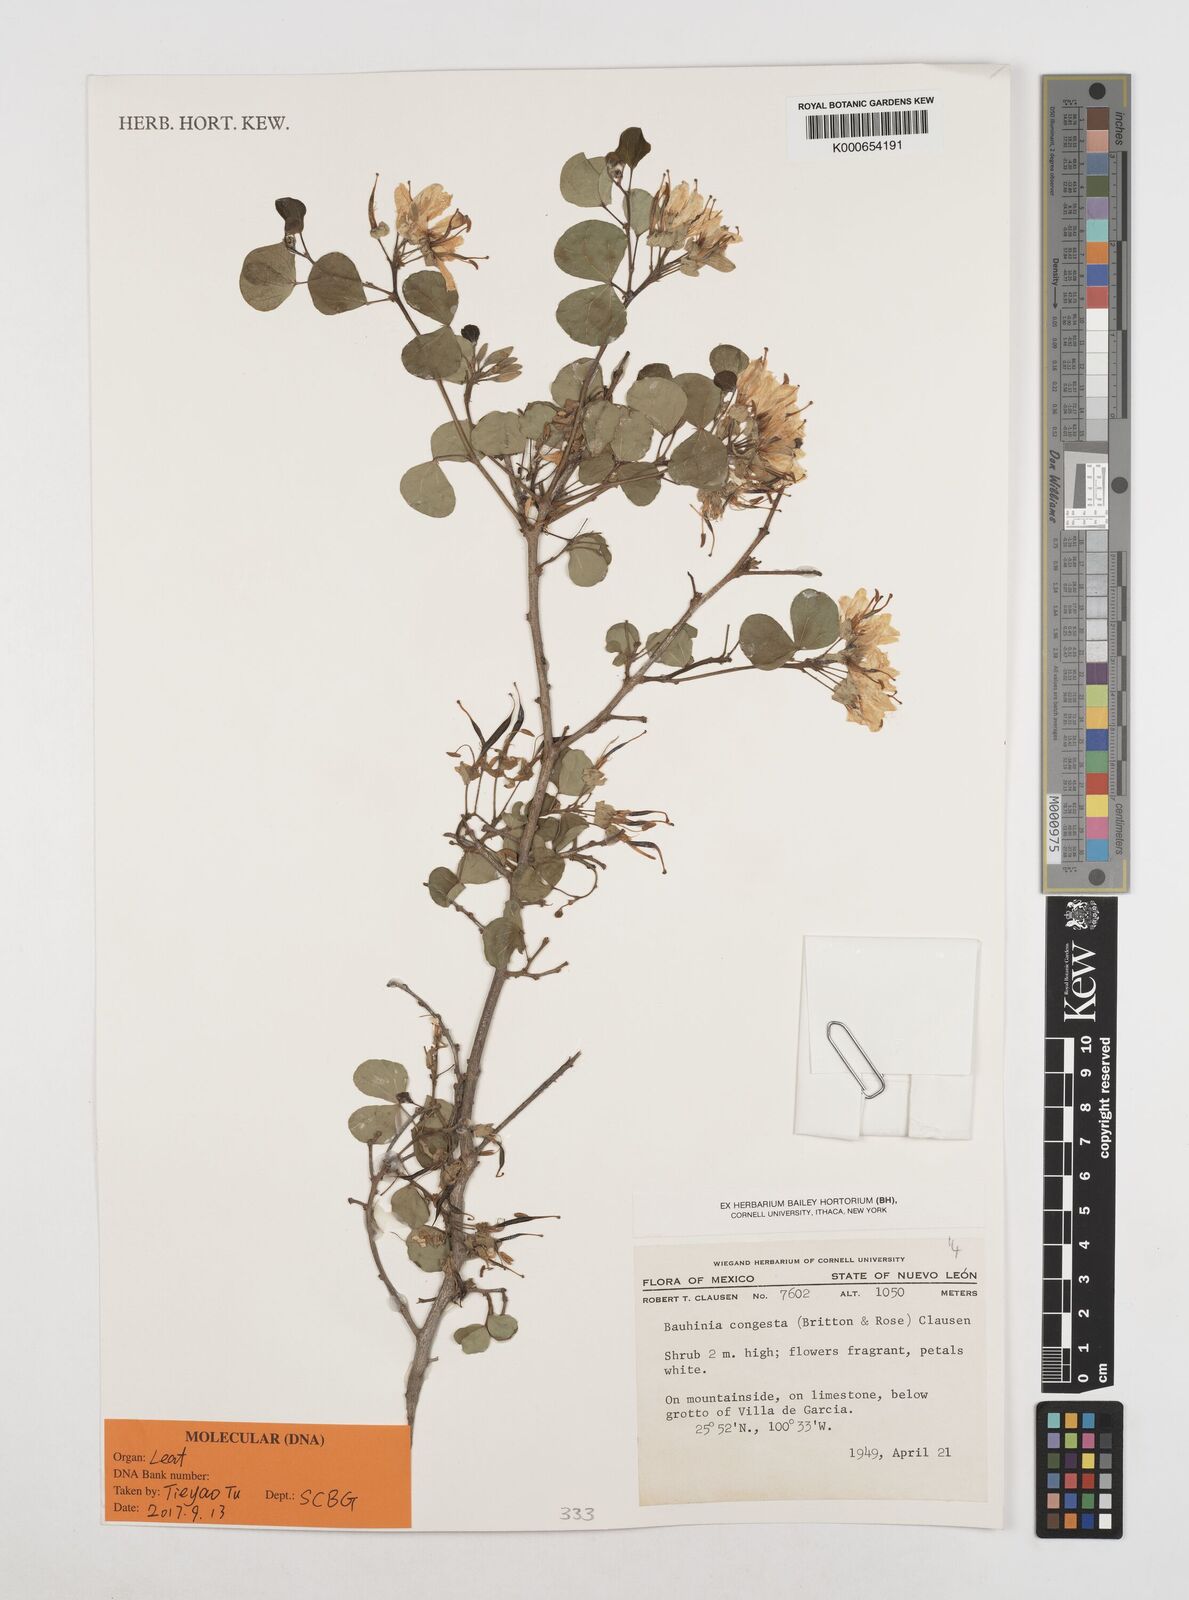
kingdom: Plantae
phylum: Tracheophyta
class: Magnoliopsida
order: Fabales
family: Fabaceae
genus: Bauhinia
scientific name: Bauhinia
